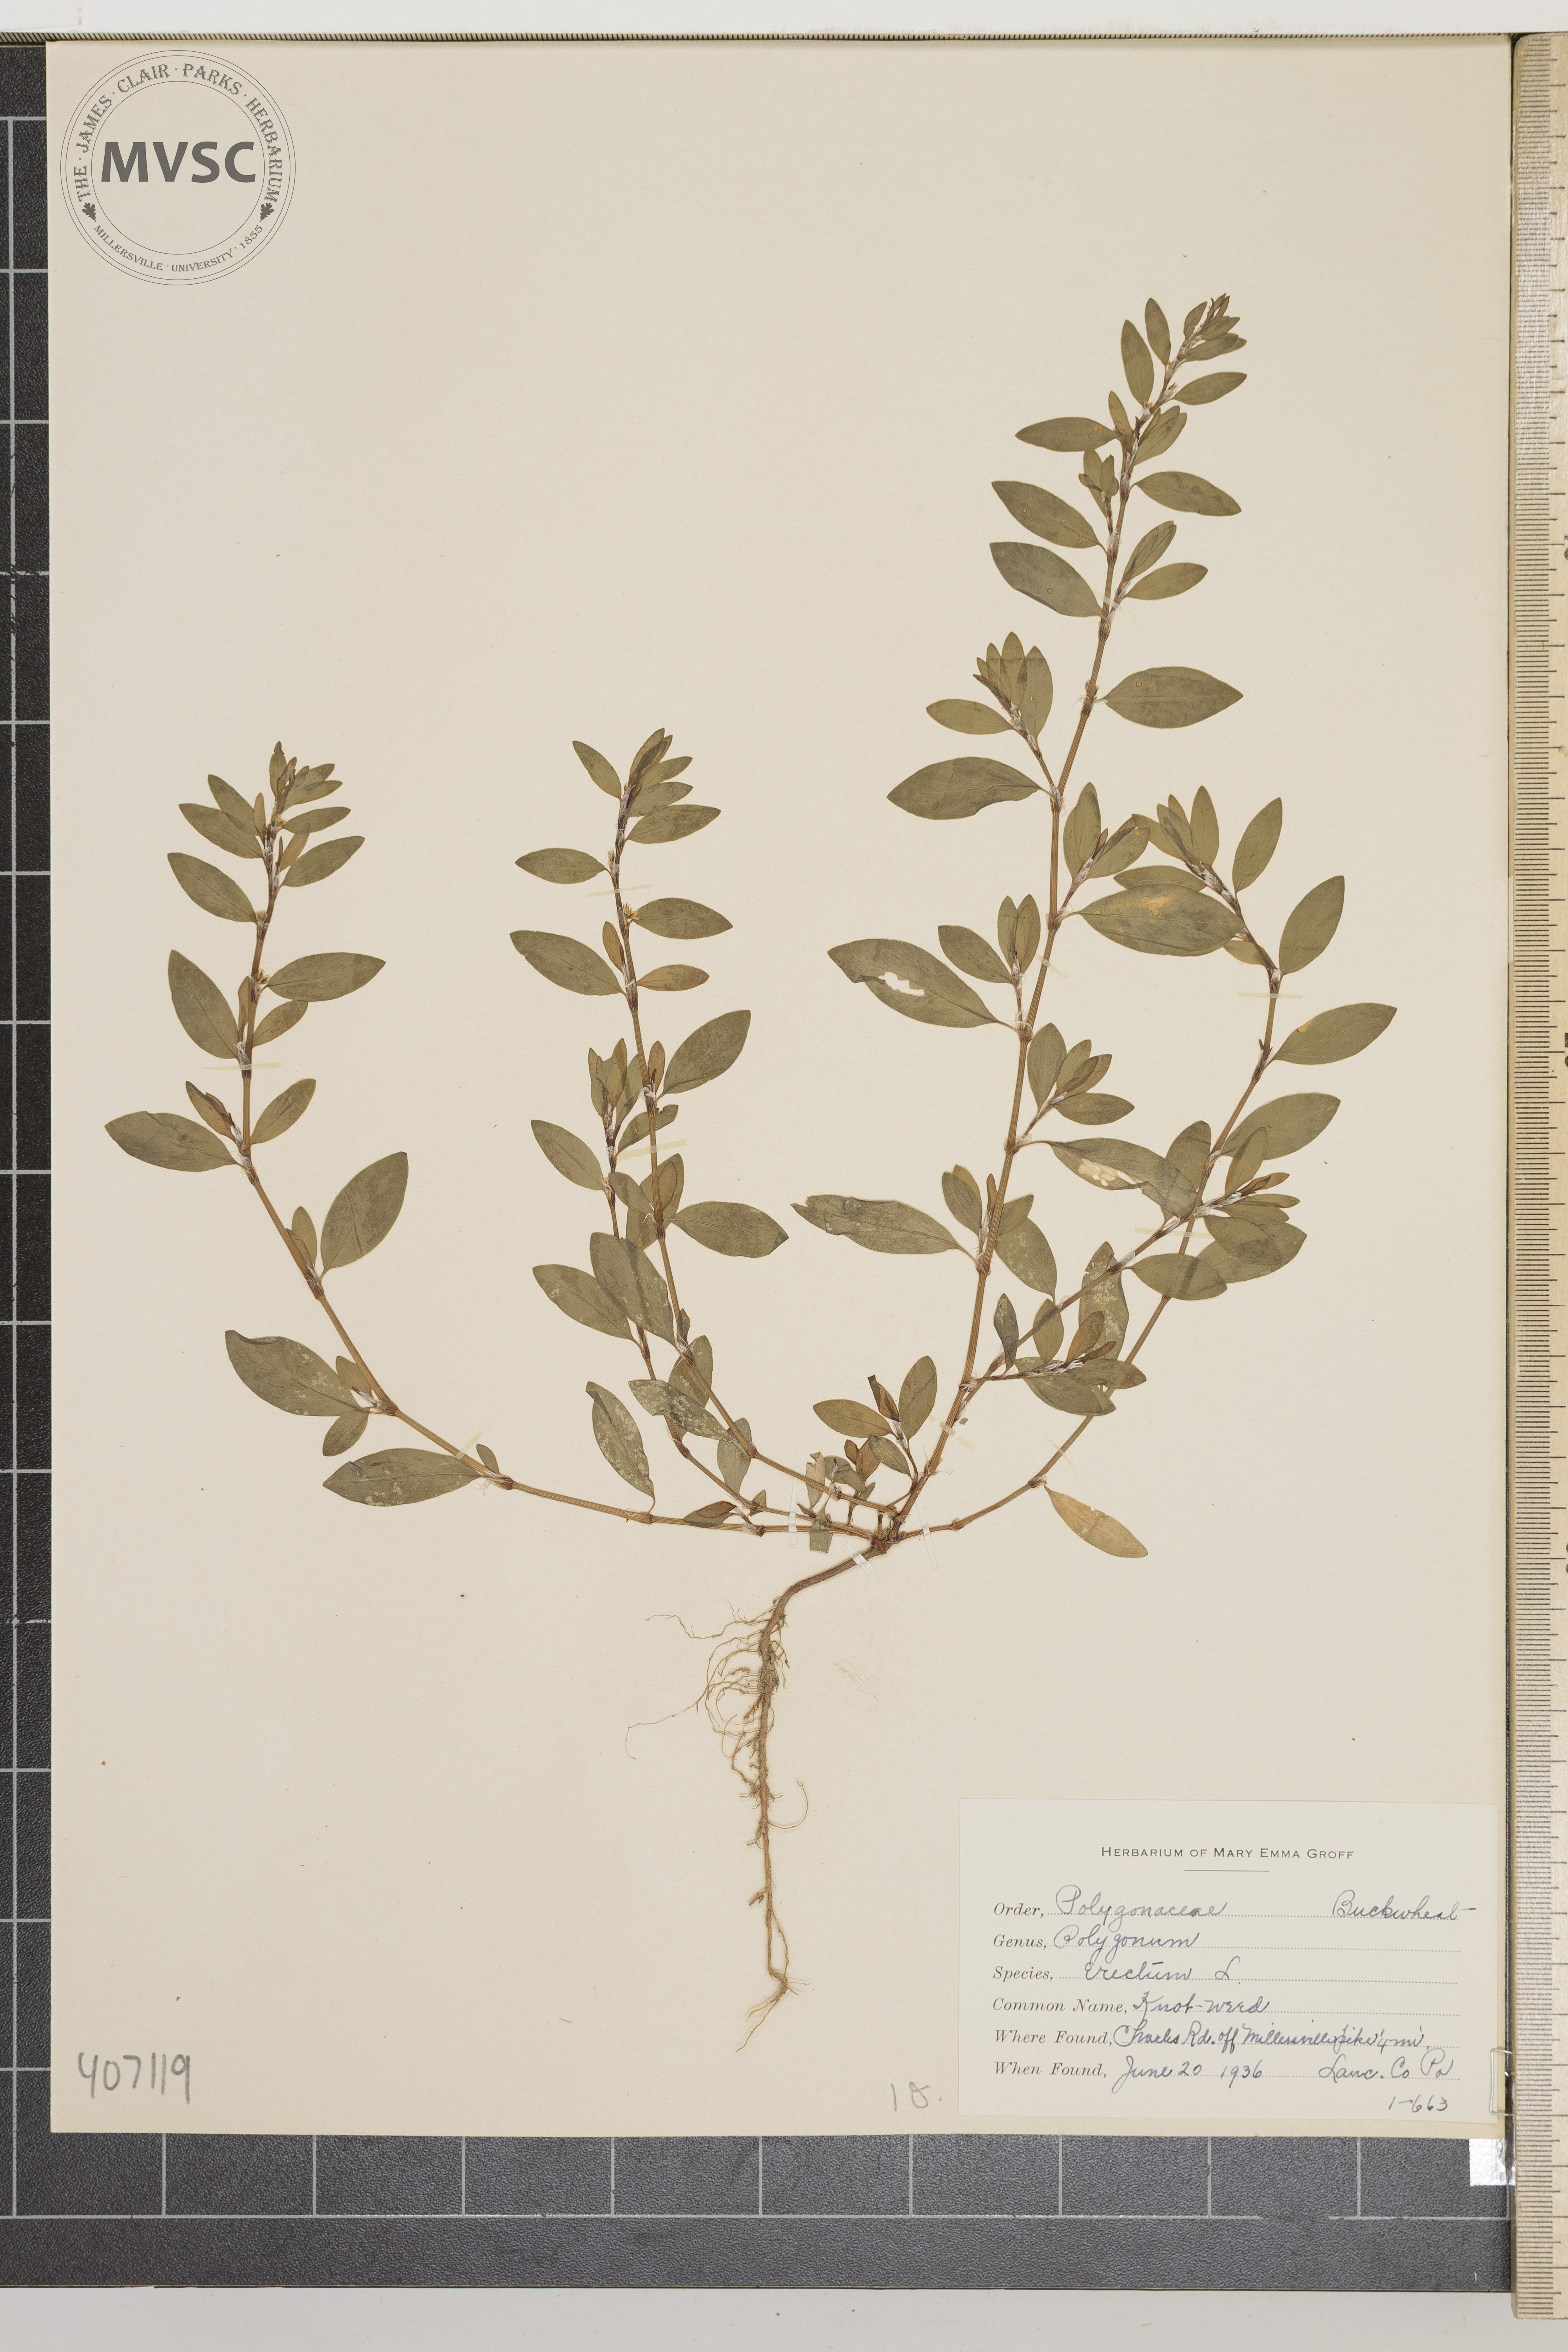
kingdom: Plantae
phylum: Tracheophyta
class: Magnoliopsida
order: Caryophyllales
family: Polygonaceae
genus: Polygonum
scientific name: Polygonum erectum
